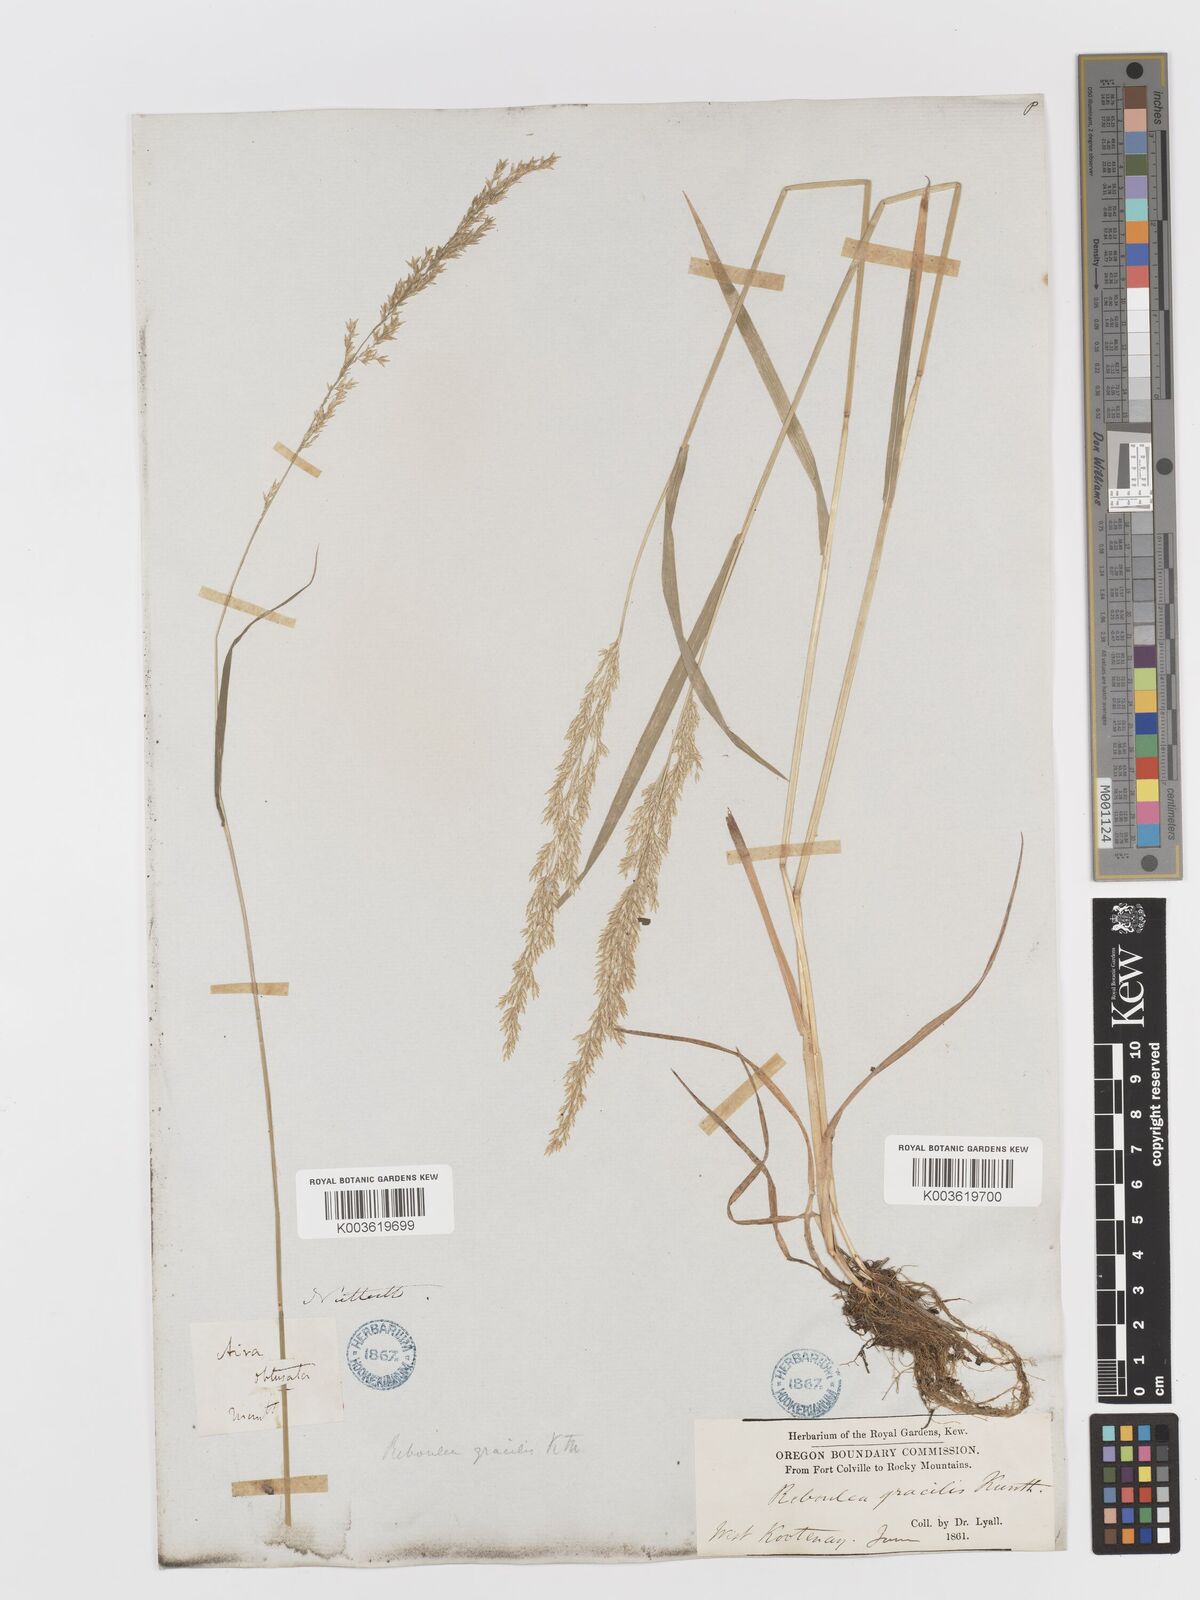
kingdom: Plantae
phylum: Tracheophyta
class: Liliopsida
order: Poales
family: Poaceae
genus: Sphenopholis
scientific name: Sphenopholis obtusata
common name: Prairie grass
